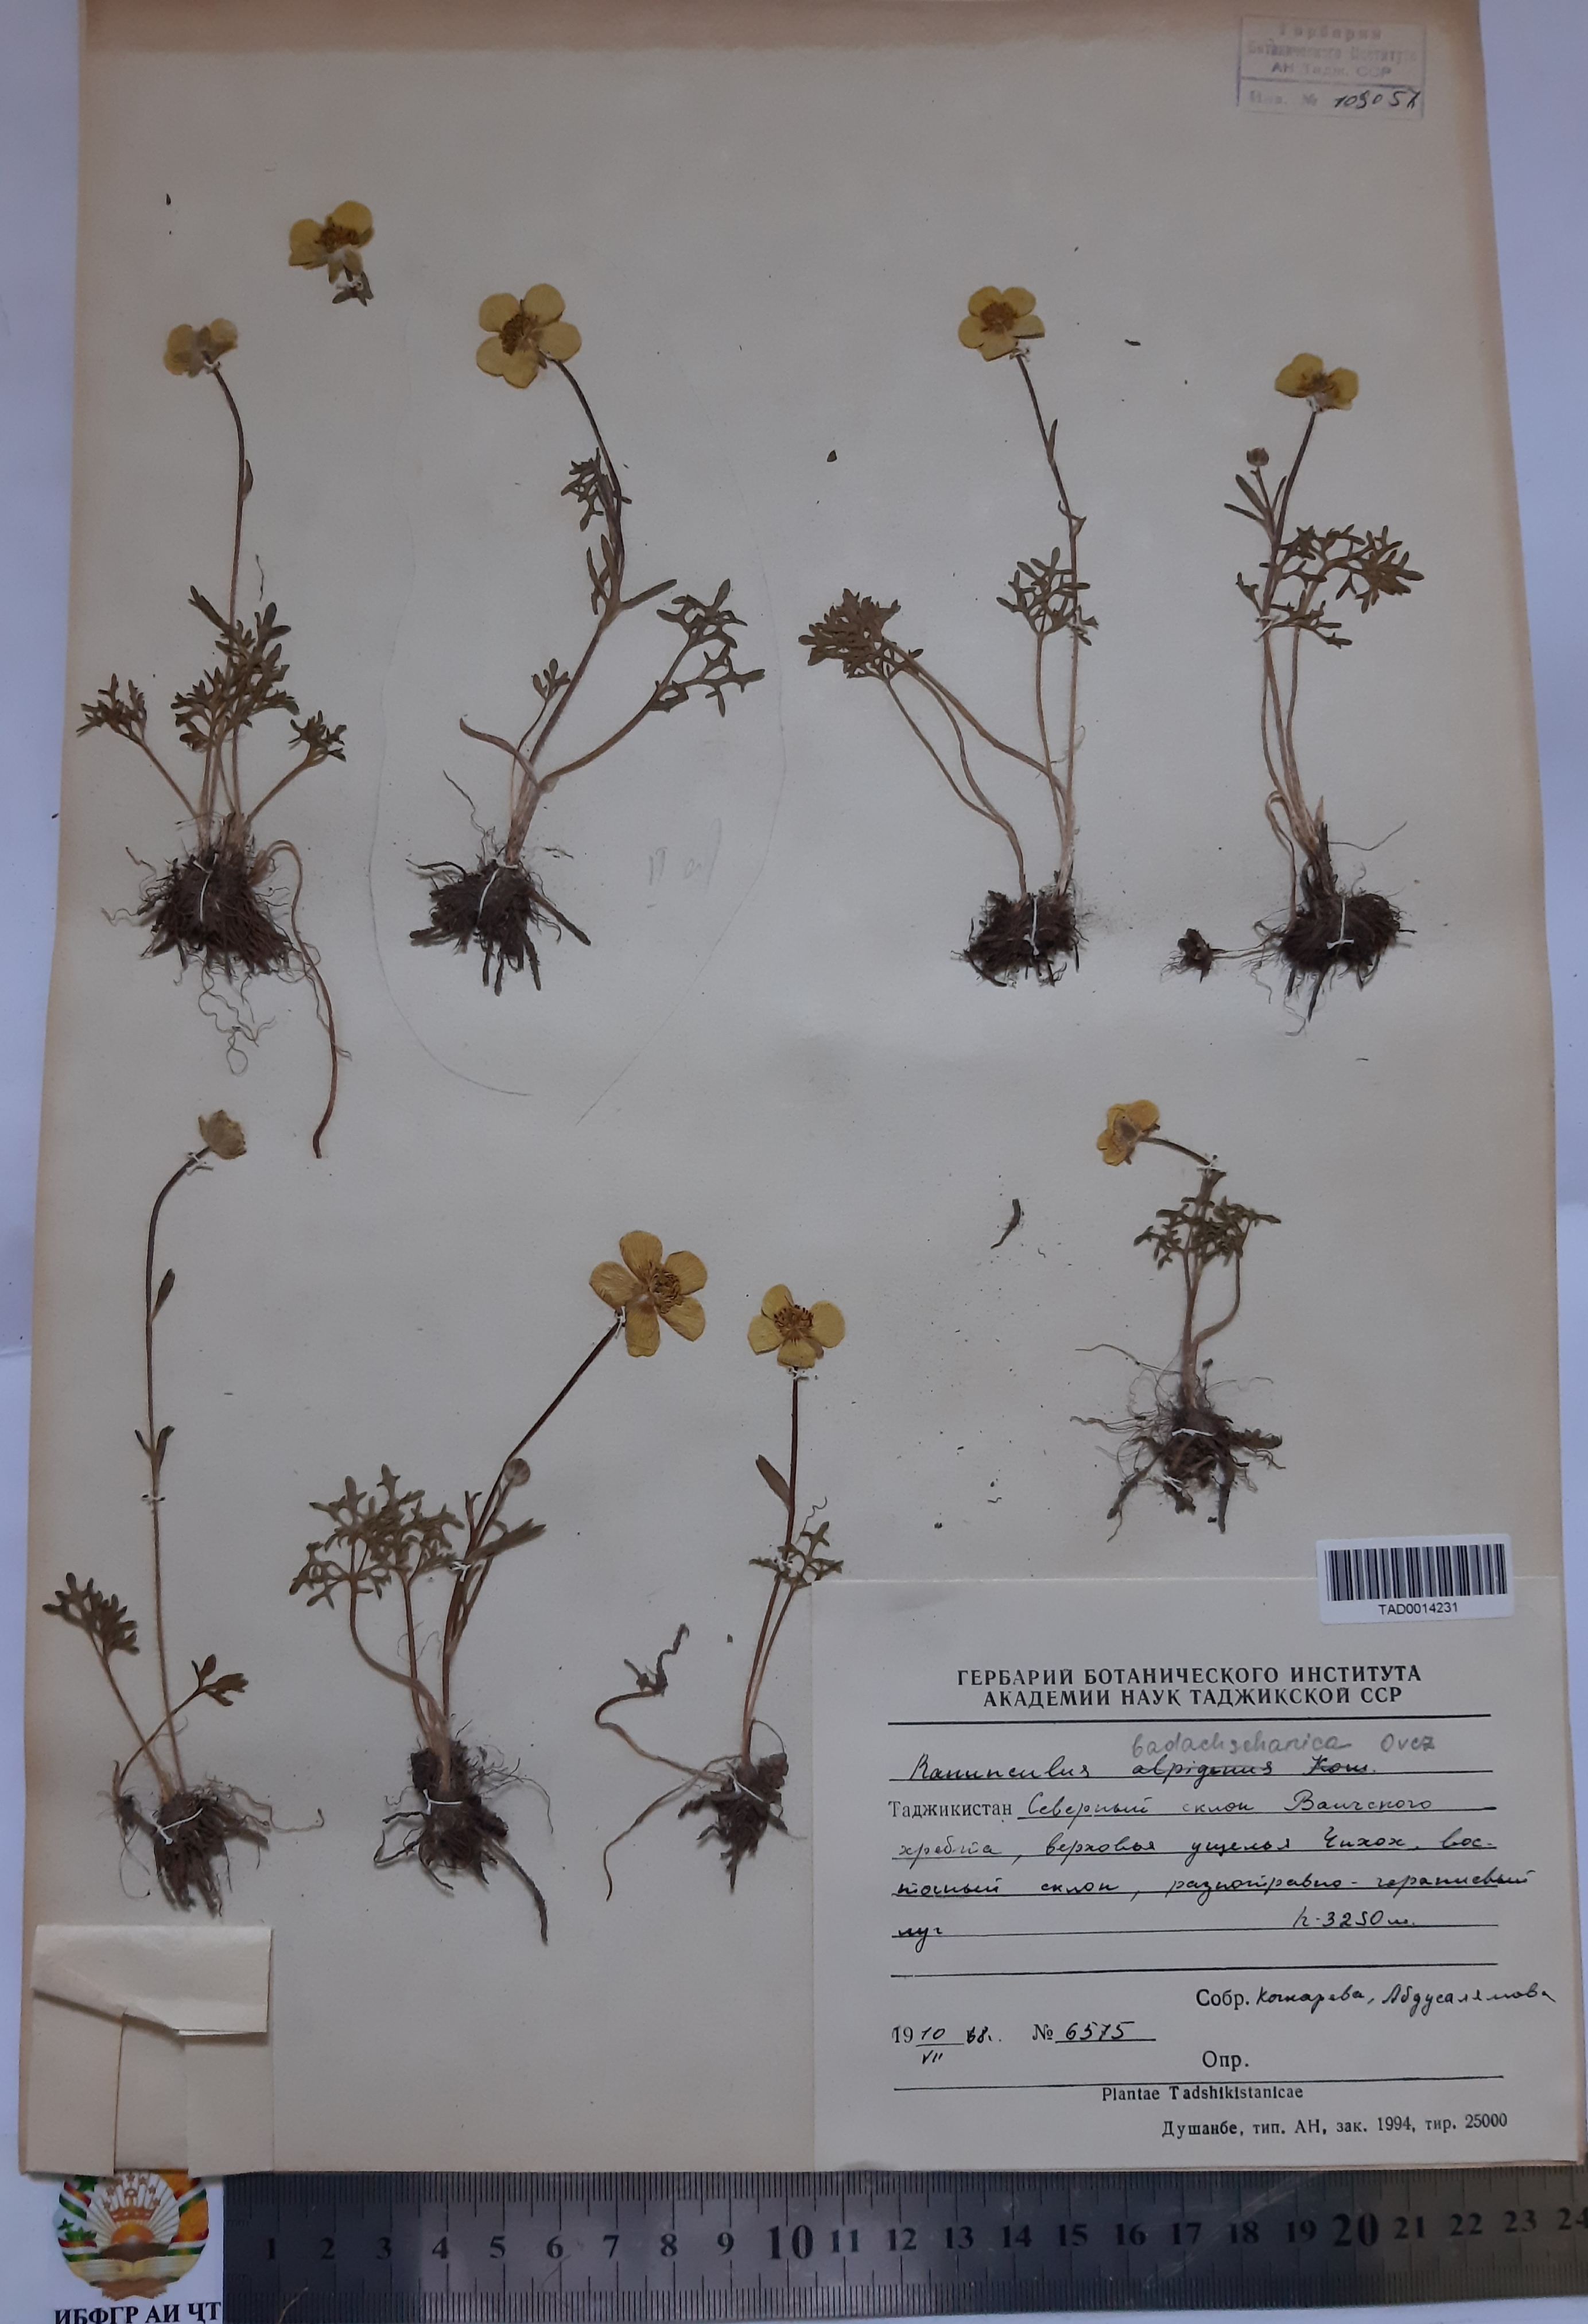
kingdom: Plantae
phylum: Tracheophyta
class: Magnoliopsida
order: Ranunculales
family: Ranunculaceae
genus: Ranunculus
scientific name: Ranunculus badachschanicus
